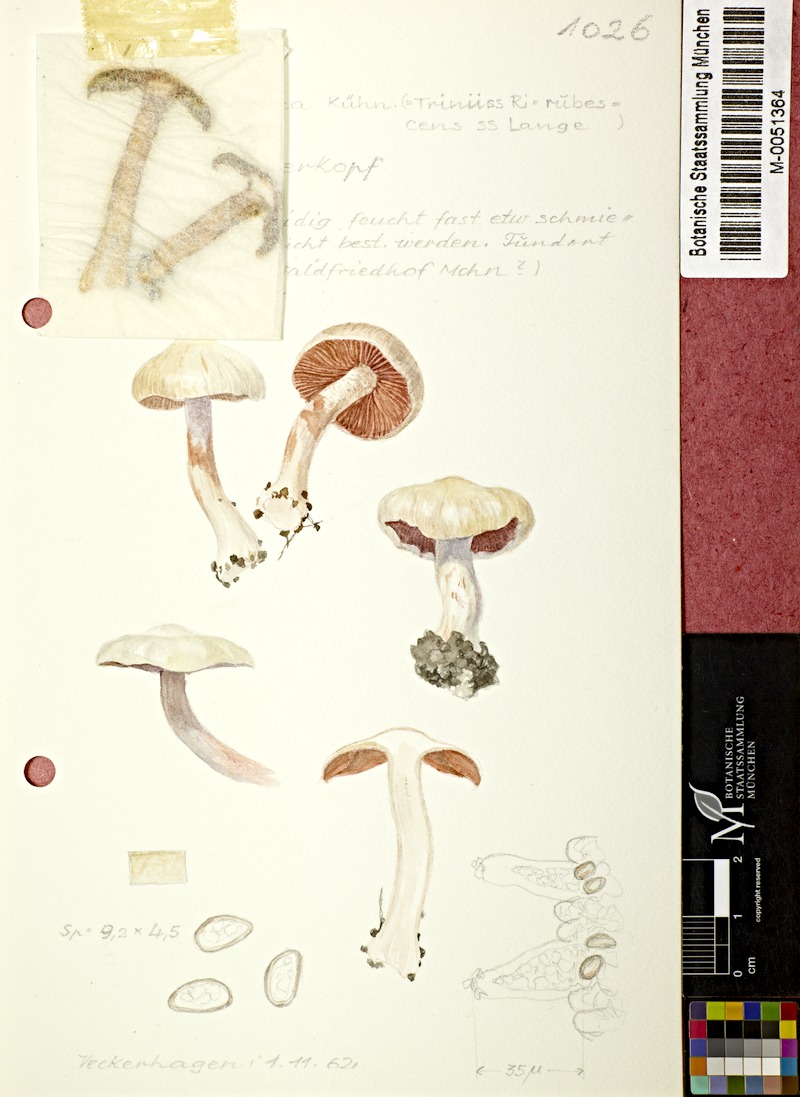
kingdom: Fungi
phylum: Basidiomycota
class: Agaricomycetes
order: Agaricales
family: Inocybaceae
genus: Inocybe
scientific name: Inocybe whitei
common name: Blushing fibrecap
